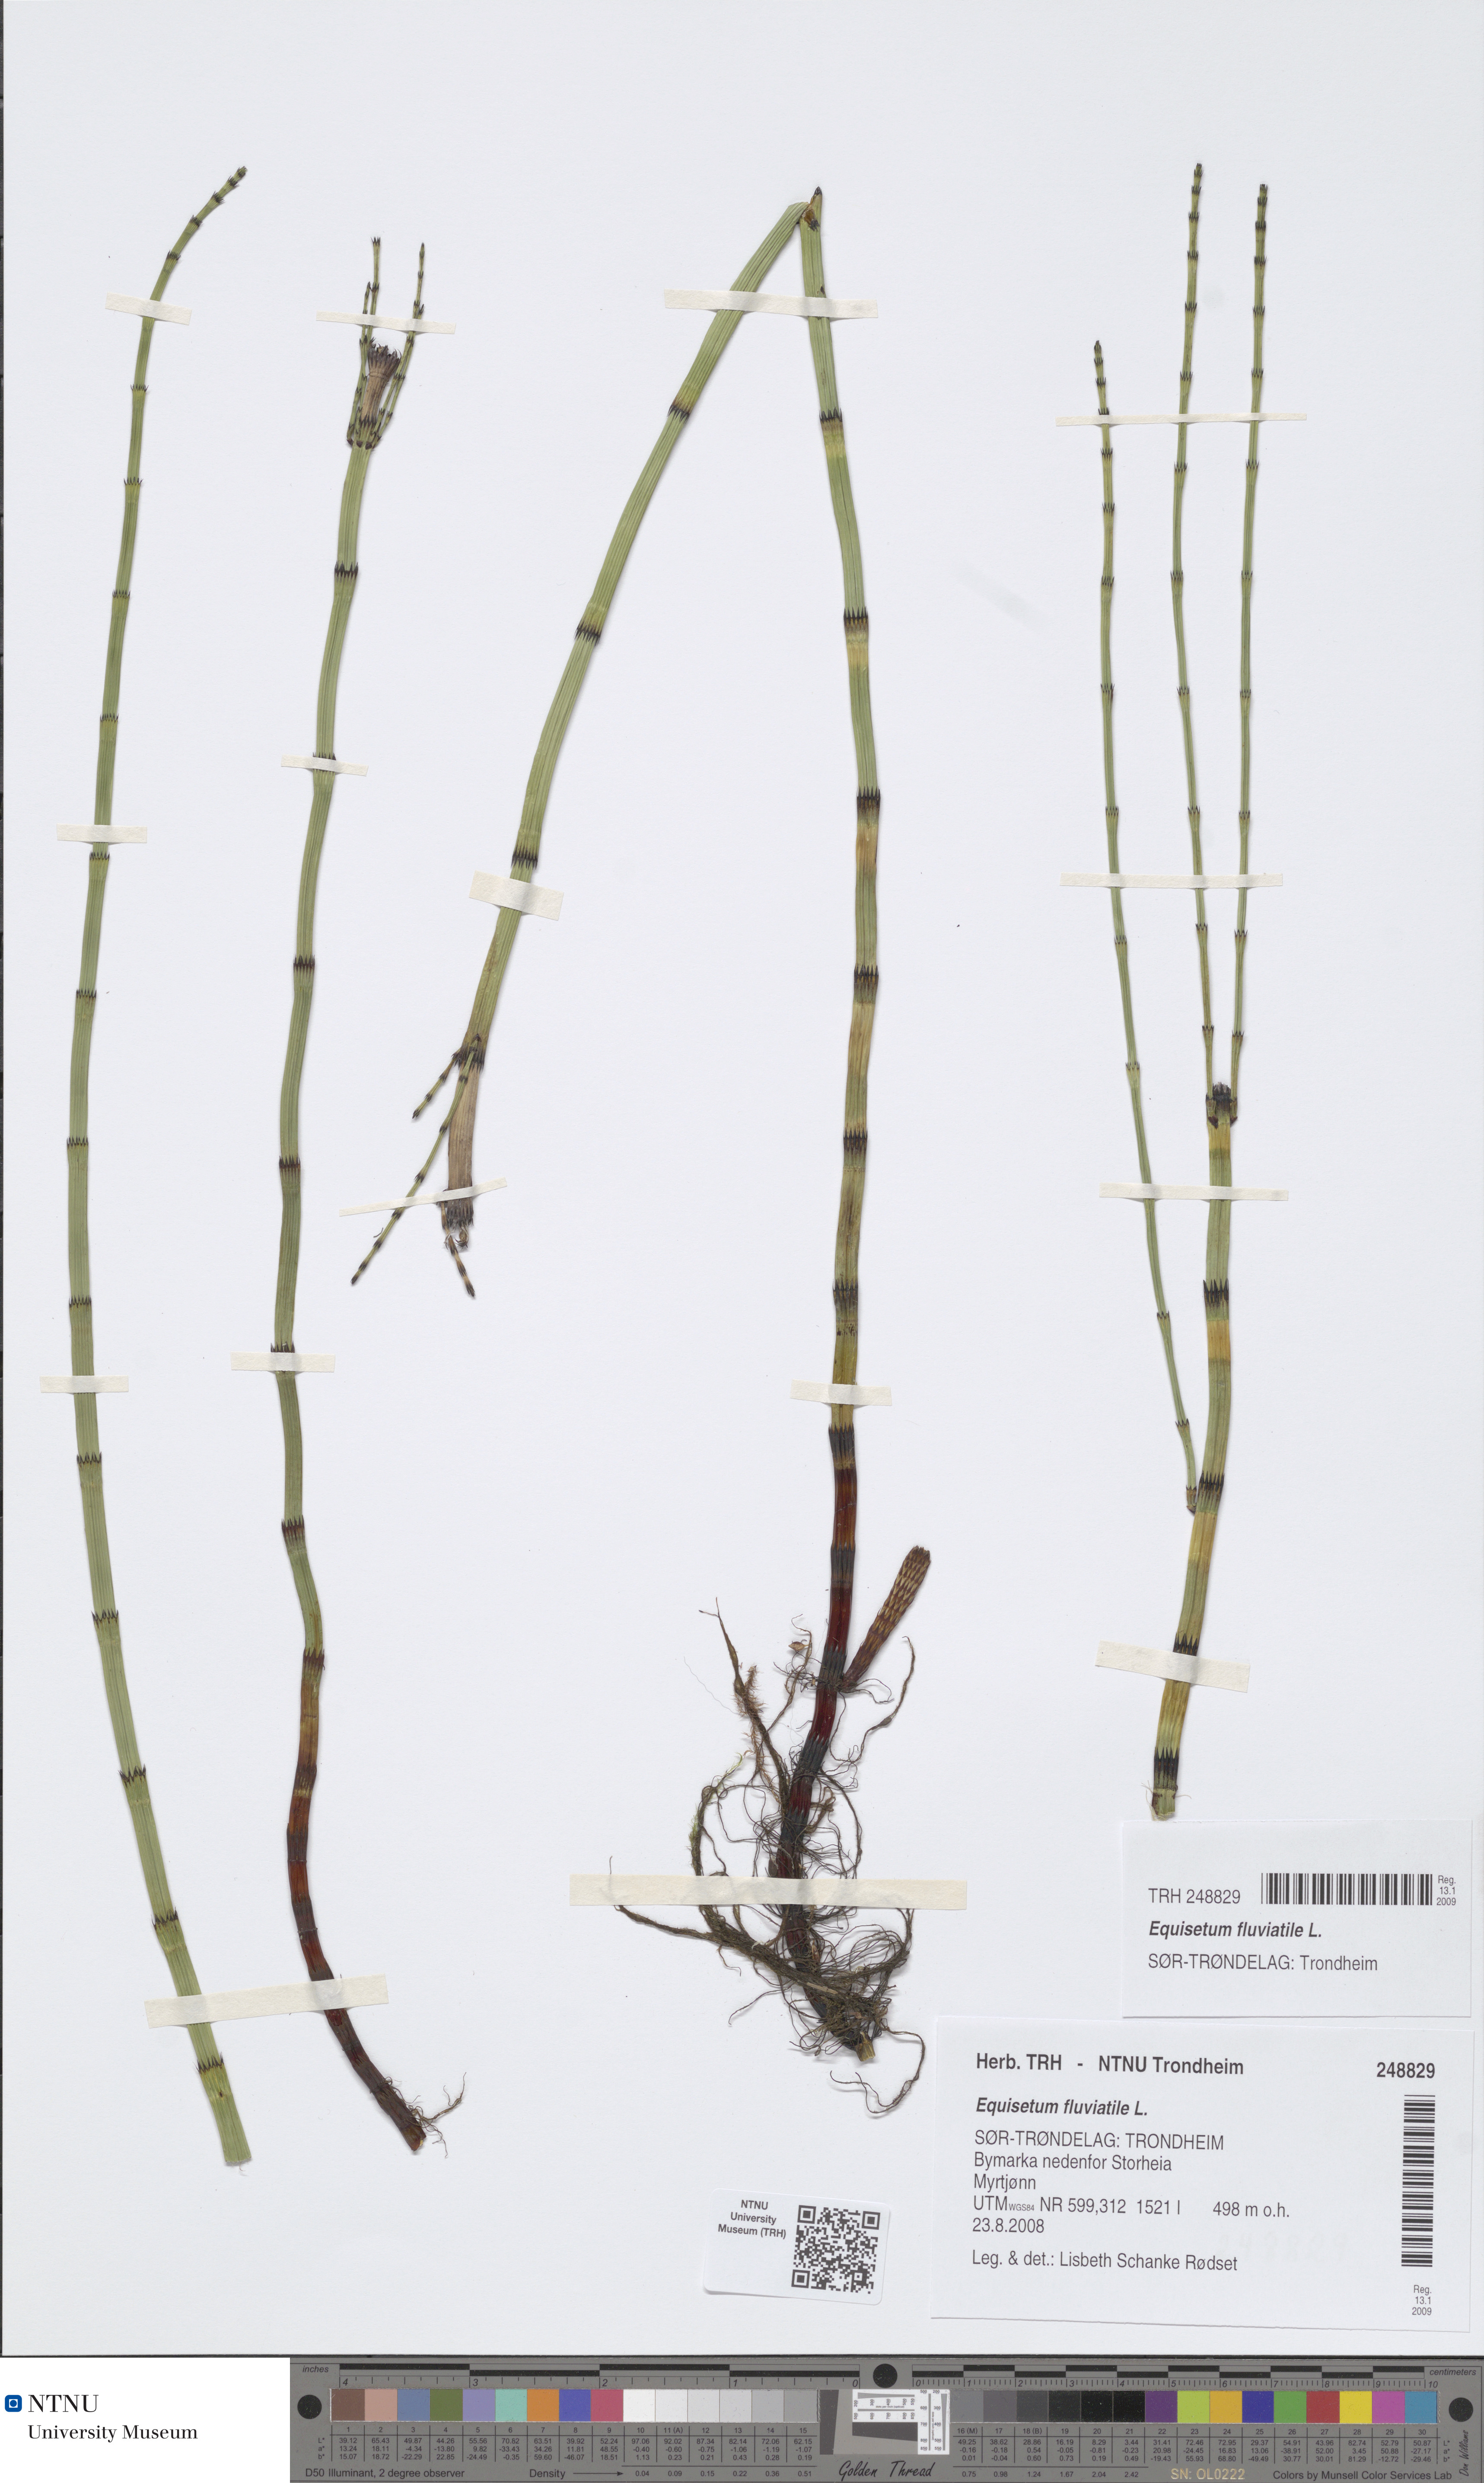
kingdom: Plantae
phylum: Tracheophyta
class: Polypodiopsida
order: Equisetales
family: Equisetaceae
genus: Equisetum
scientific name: Equisetum fluviatile
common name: Water horsetail
